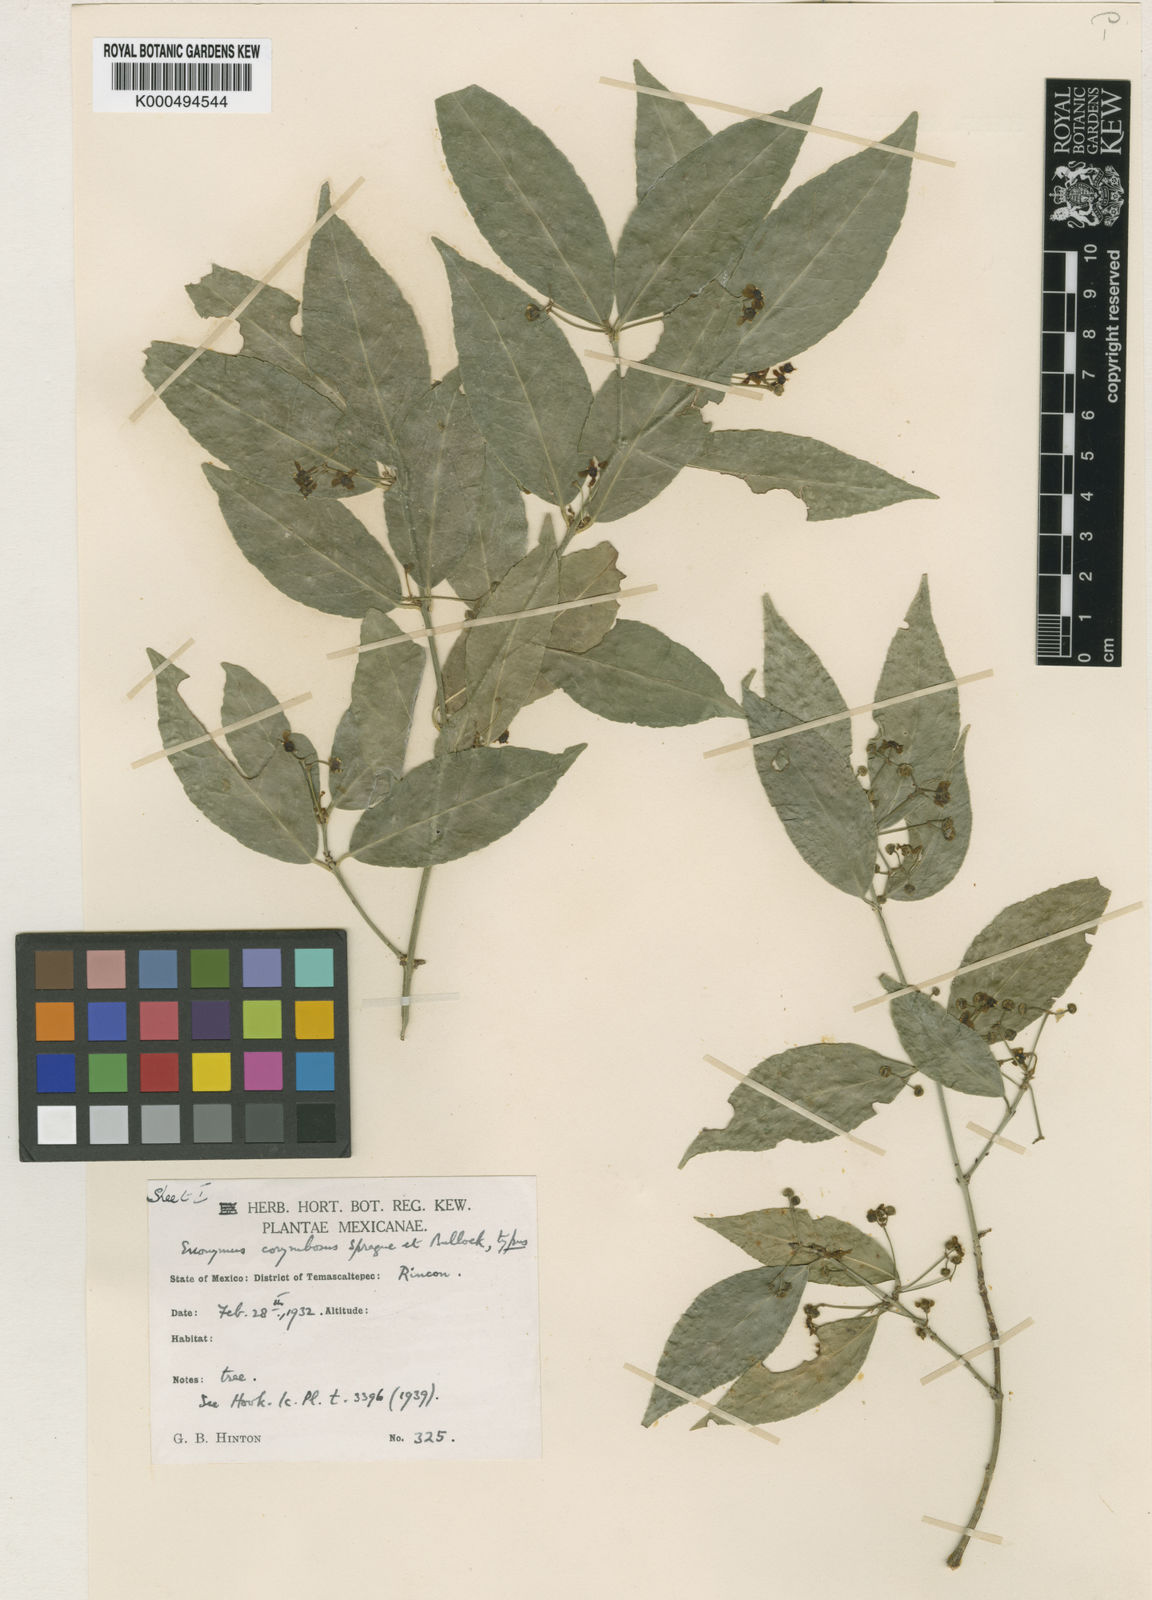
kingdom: Plantae
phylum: Tracheophyta
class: Magnoliopsida
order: Celastrales
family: Celastraceae
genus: Euonymus
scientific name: Euonymus corymbosus
